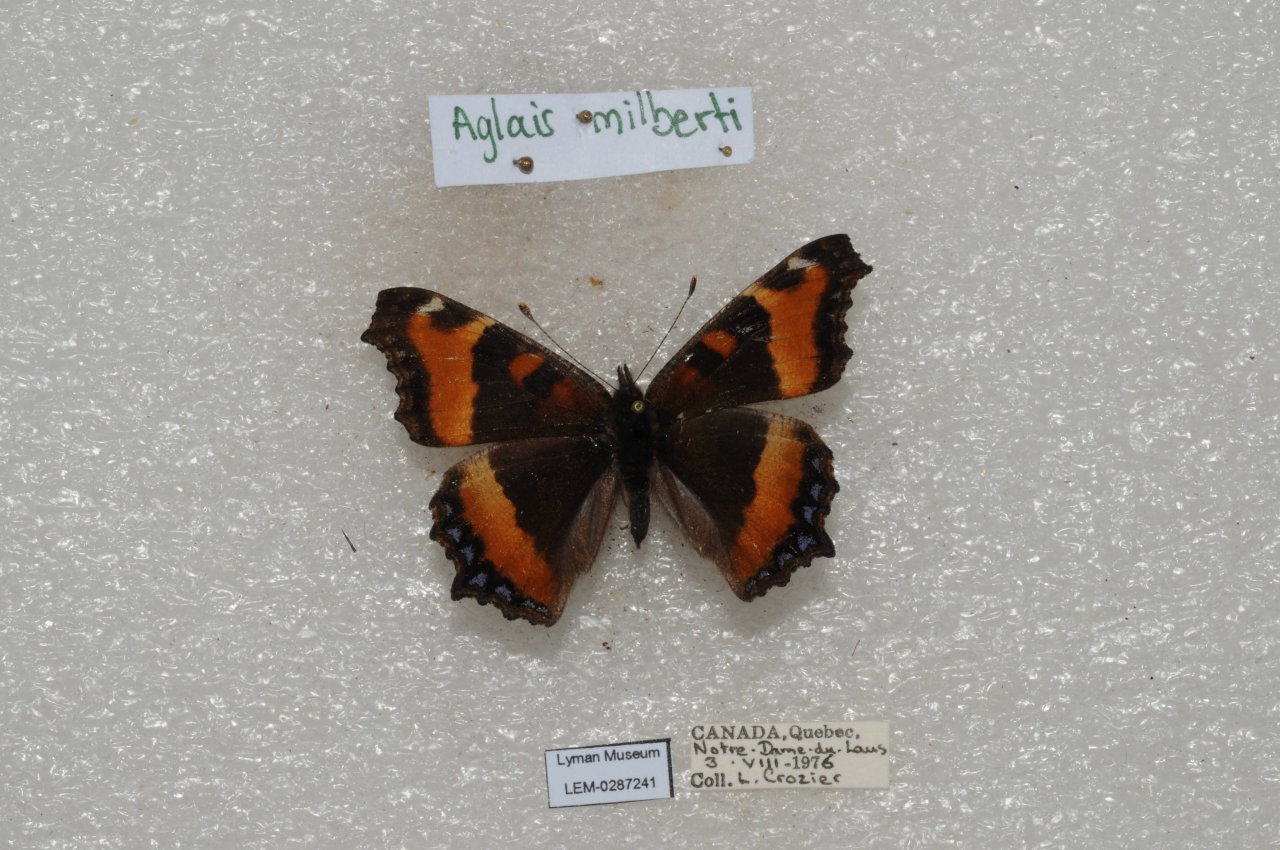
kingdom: Animalia
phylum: Arthropoda
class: Insecta
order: Lepidoptera
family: Nymphalidae
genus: Aglais
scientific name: Aglais milberti
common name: Milbert's Tortoiseshell
